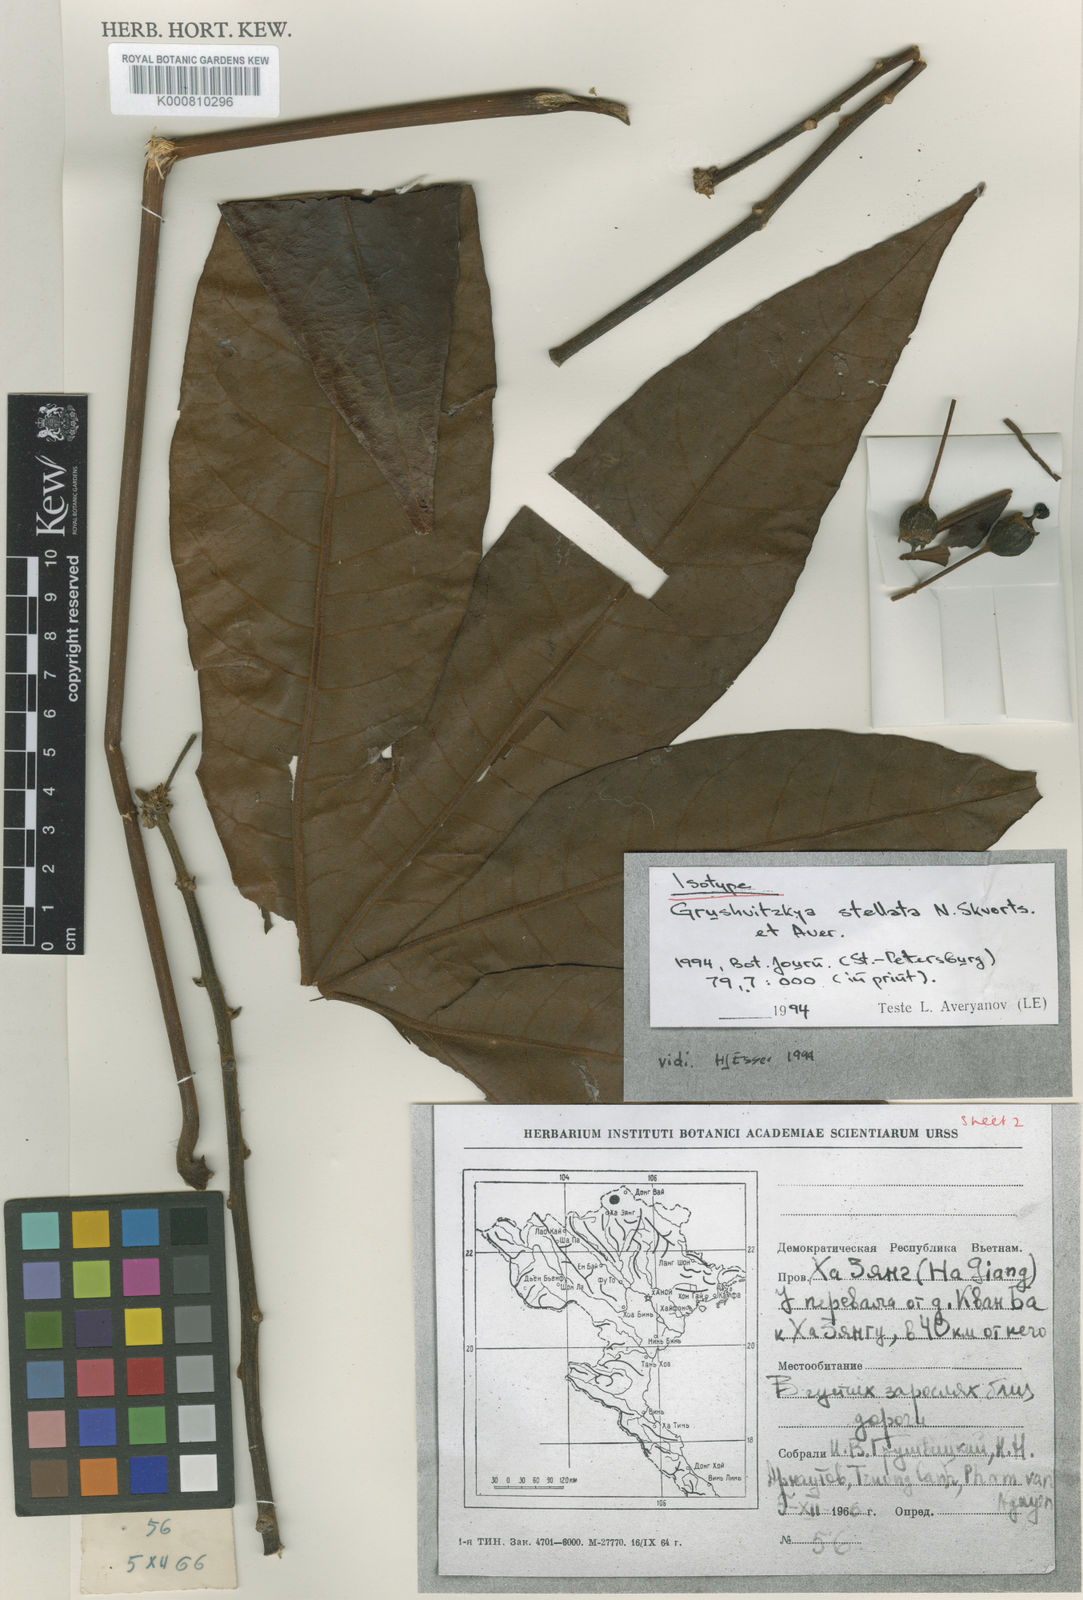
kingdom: Plantae
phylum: Tracheophyta
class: Magnoliopsida
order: Apiales
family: Araliaceae
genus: Brassaiopsis
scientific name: Brassaiopsis grushvitzkyi
